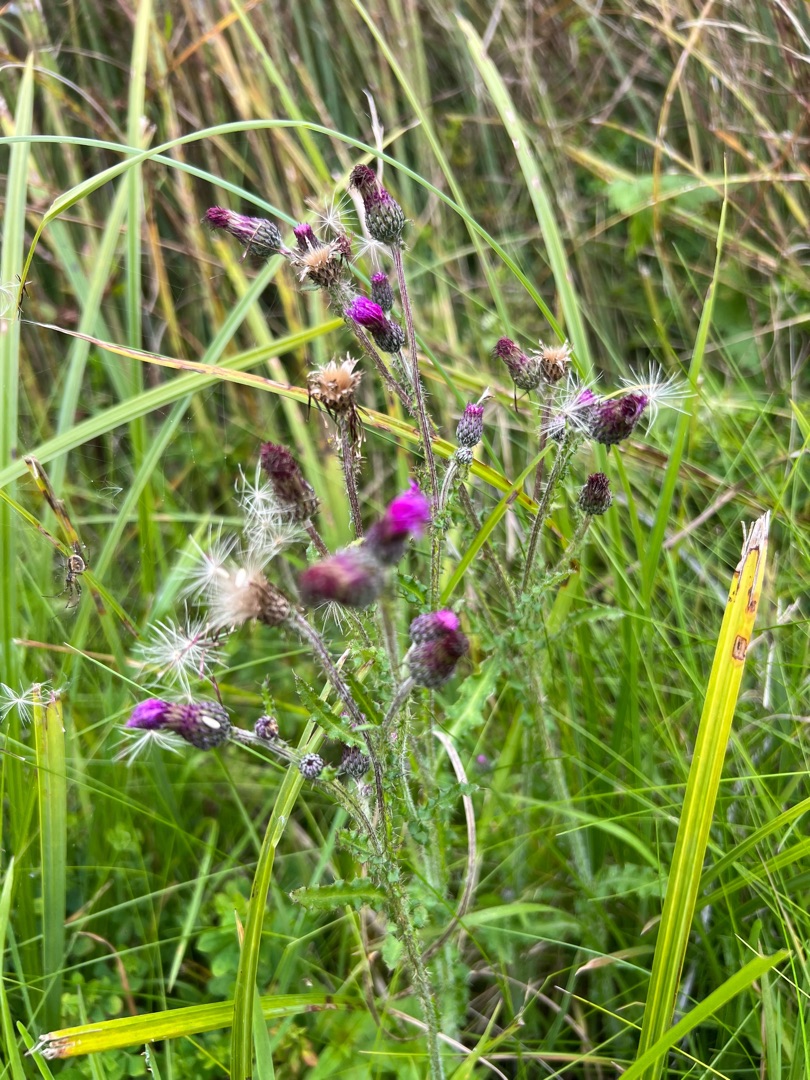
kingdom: Plantae
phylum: Tracheophyta
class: Magnoliopsida
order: Asterales
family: Asteraceae
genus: Cirsium
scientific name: Cirsium palustre
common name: Kær-tidsel
